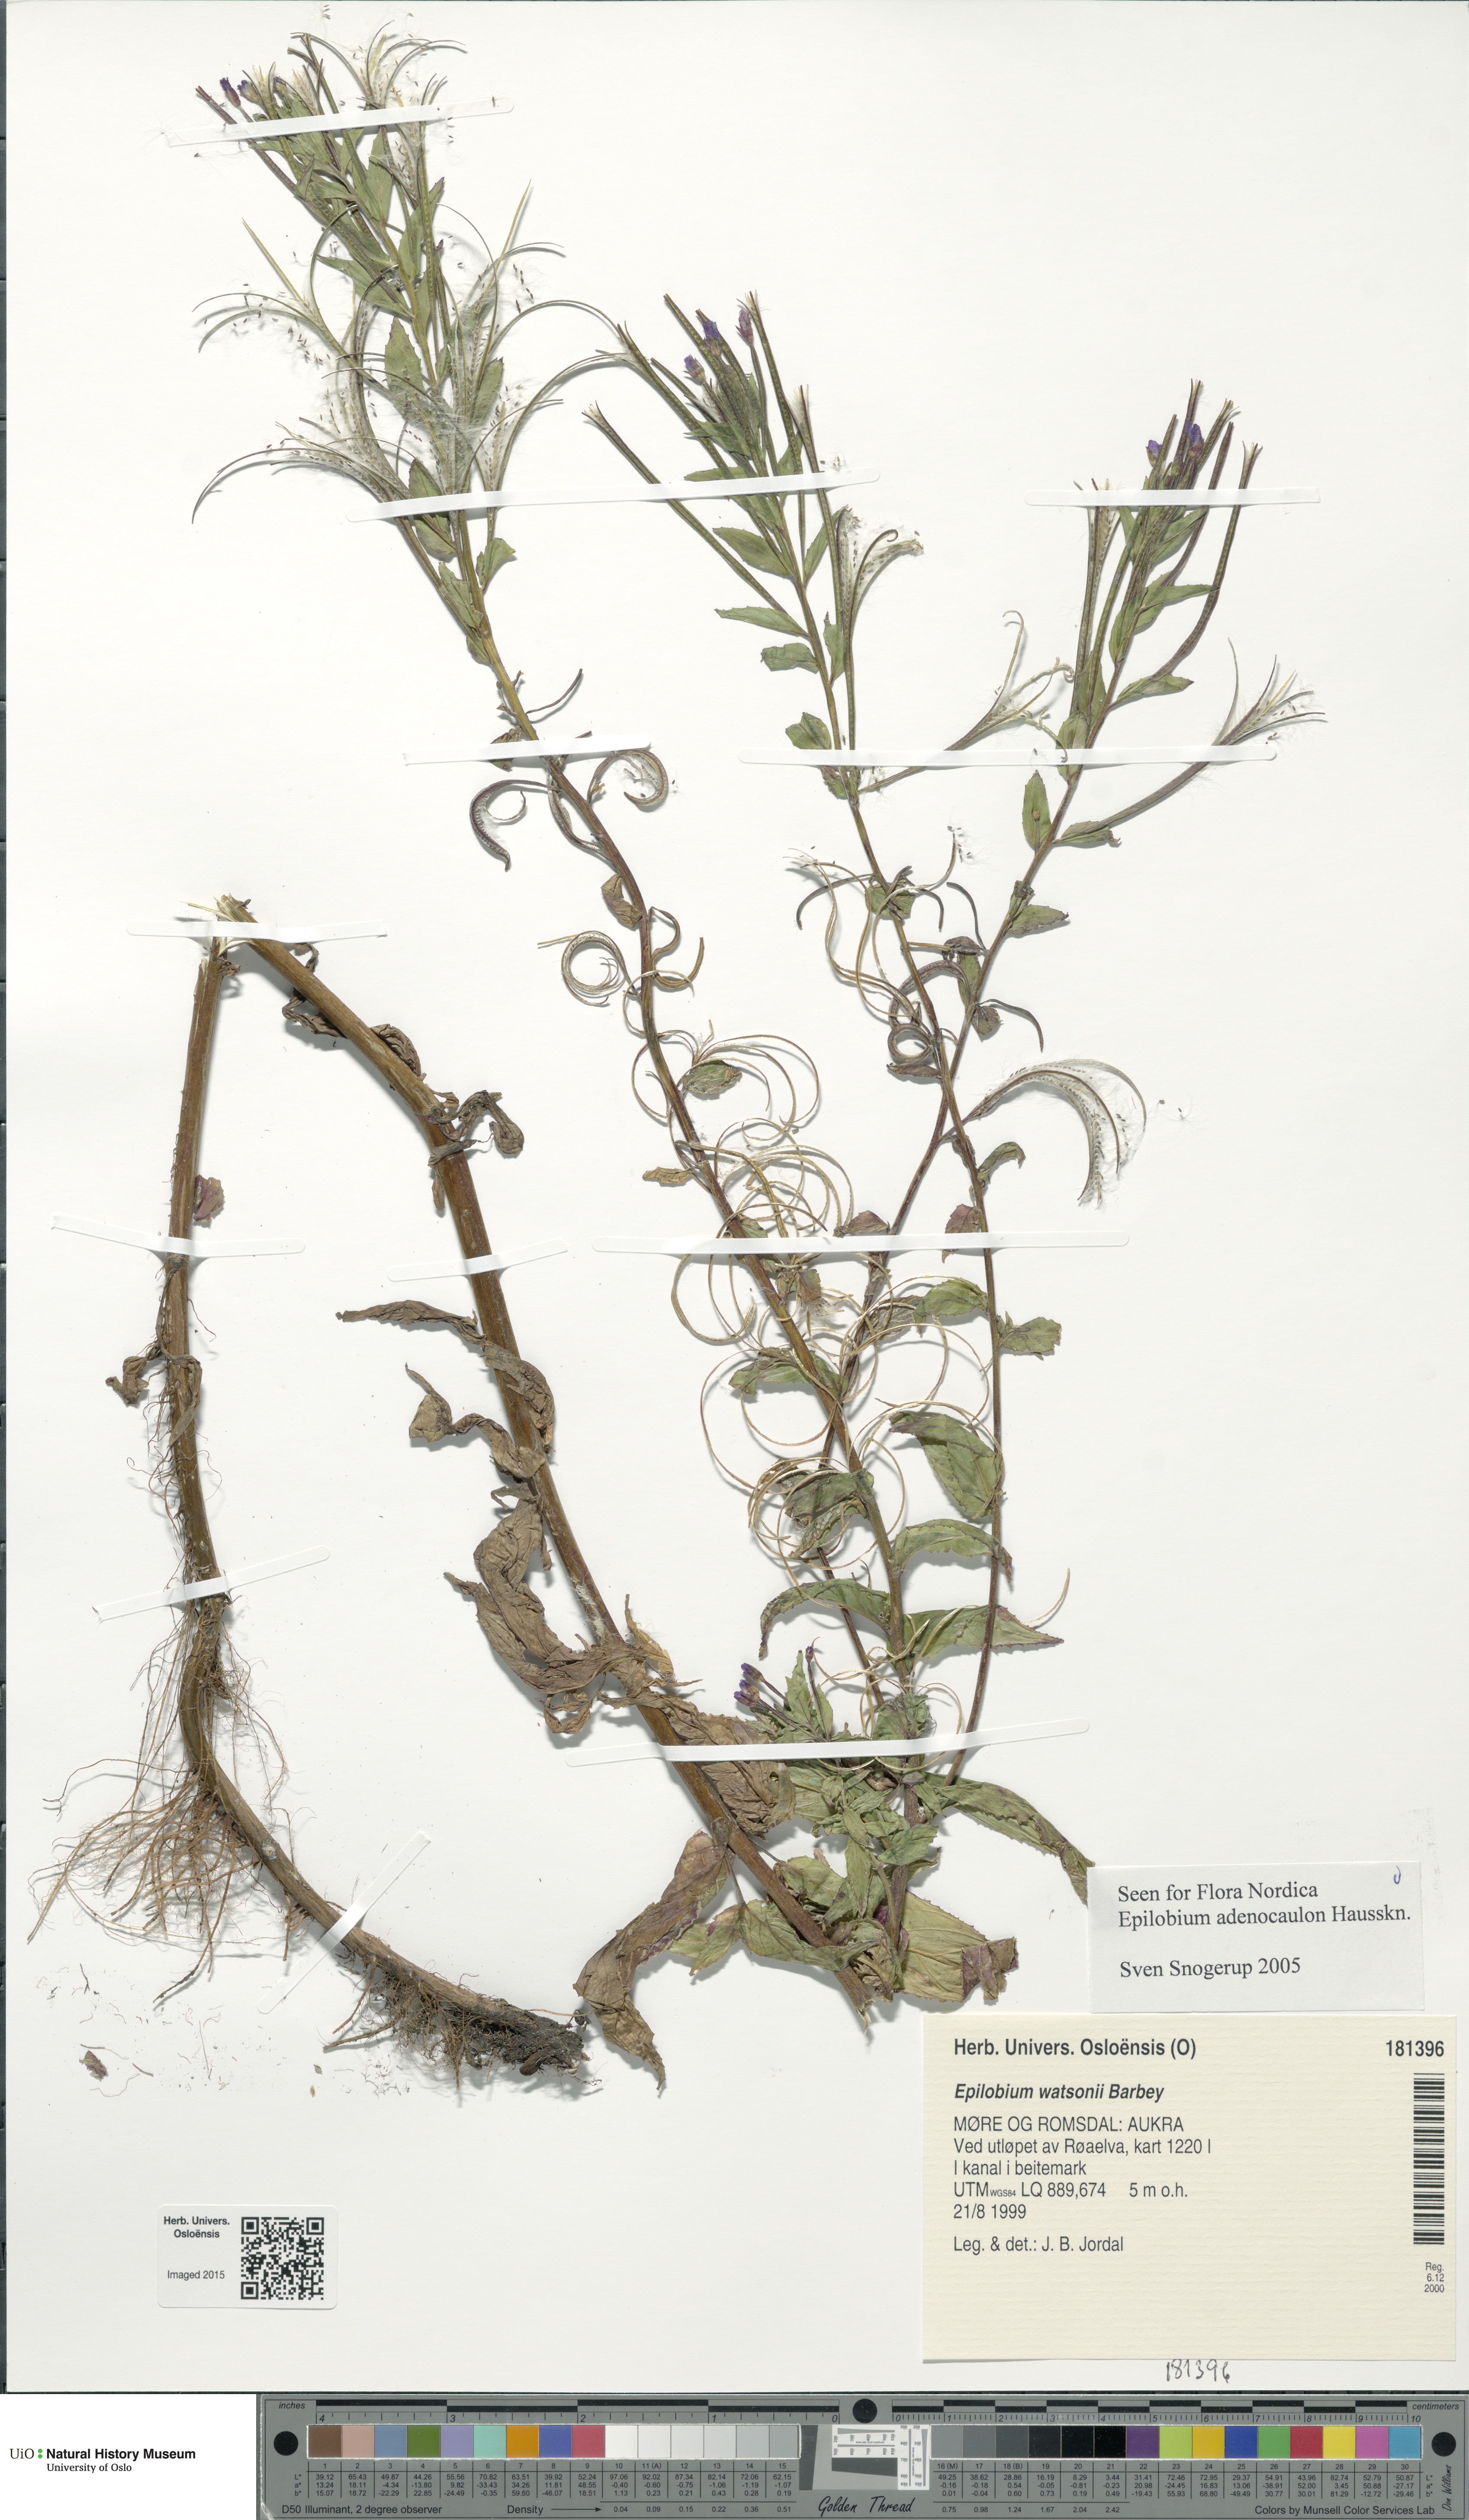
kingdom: Plantae
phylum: Tracheophyta
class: Magnoliopsida
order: Myrtales
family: Onagraceae
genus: Epilobium
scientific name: Epilobium ciliatum
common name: American willowherb
